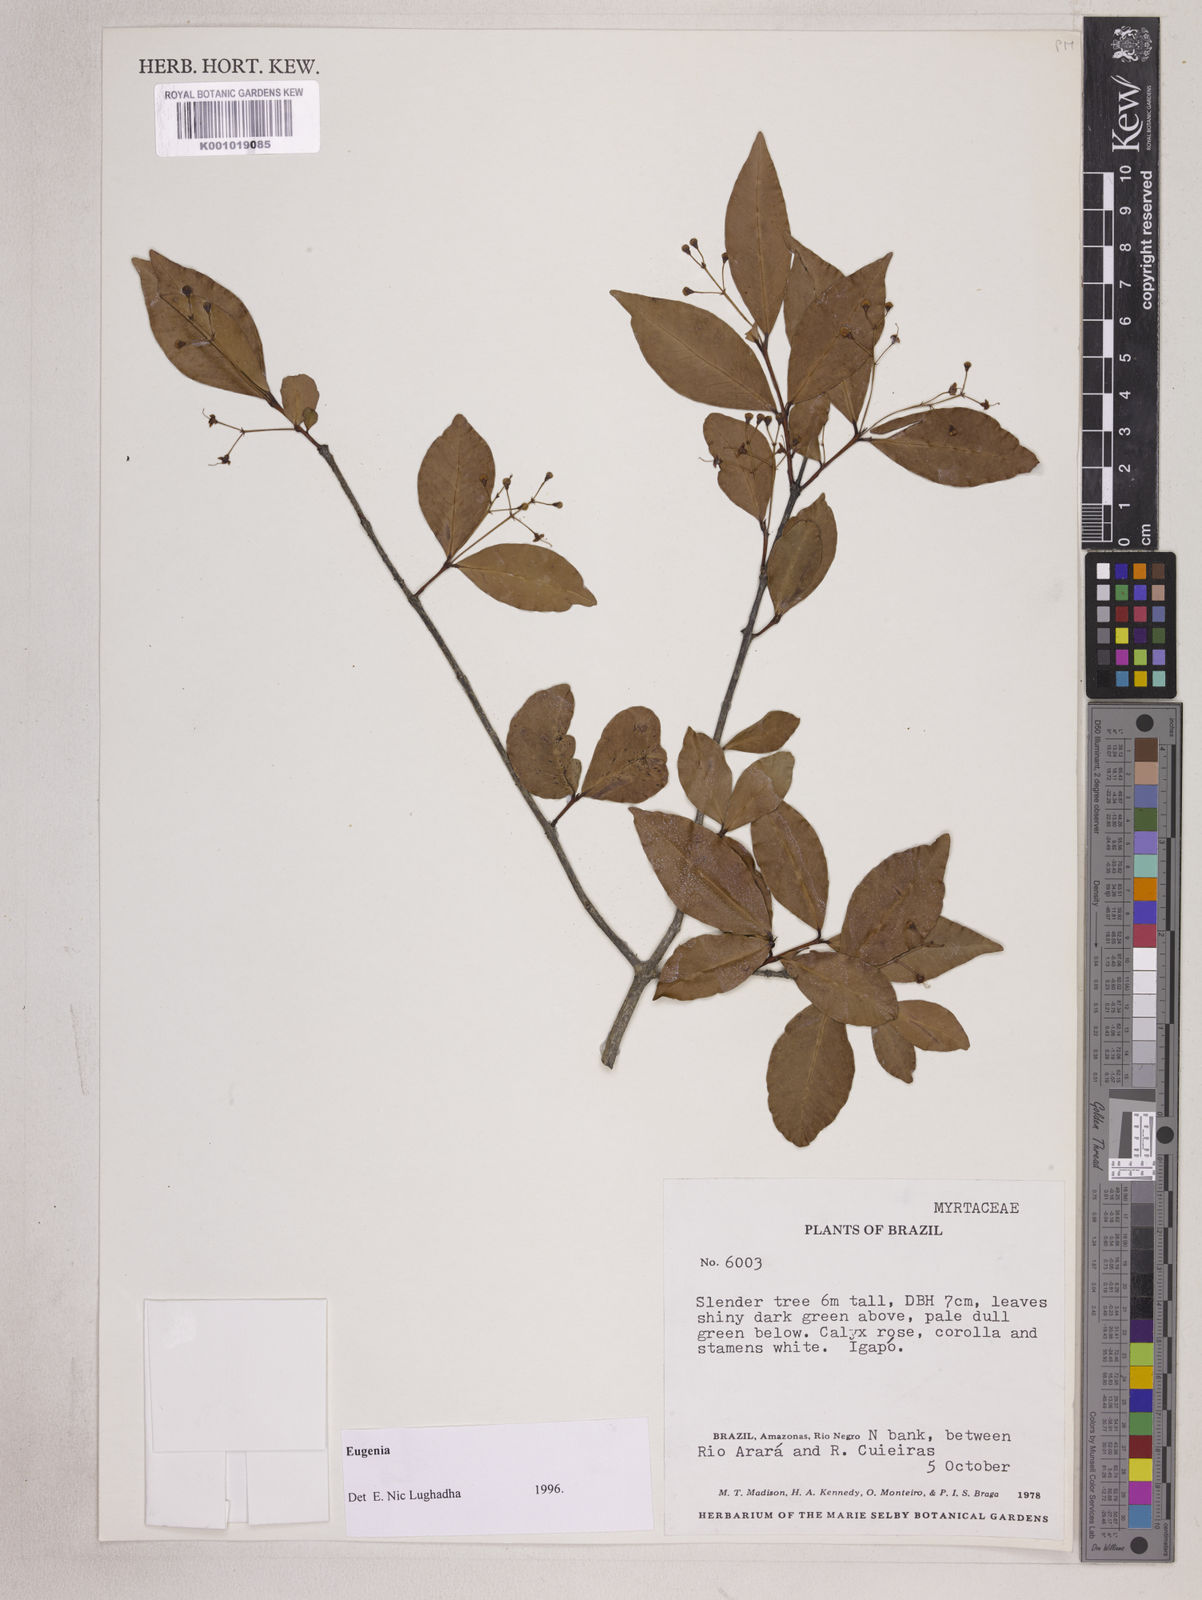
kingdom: Plantae
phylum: Tracheophyta
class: Magnoliopsida
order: Myrtales
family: Myrtaceae
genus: Eugenia
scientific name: Eugenia longiracemosa
